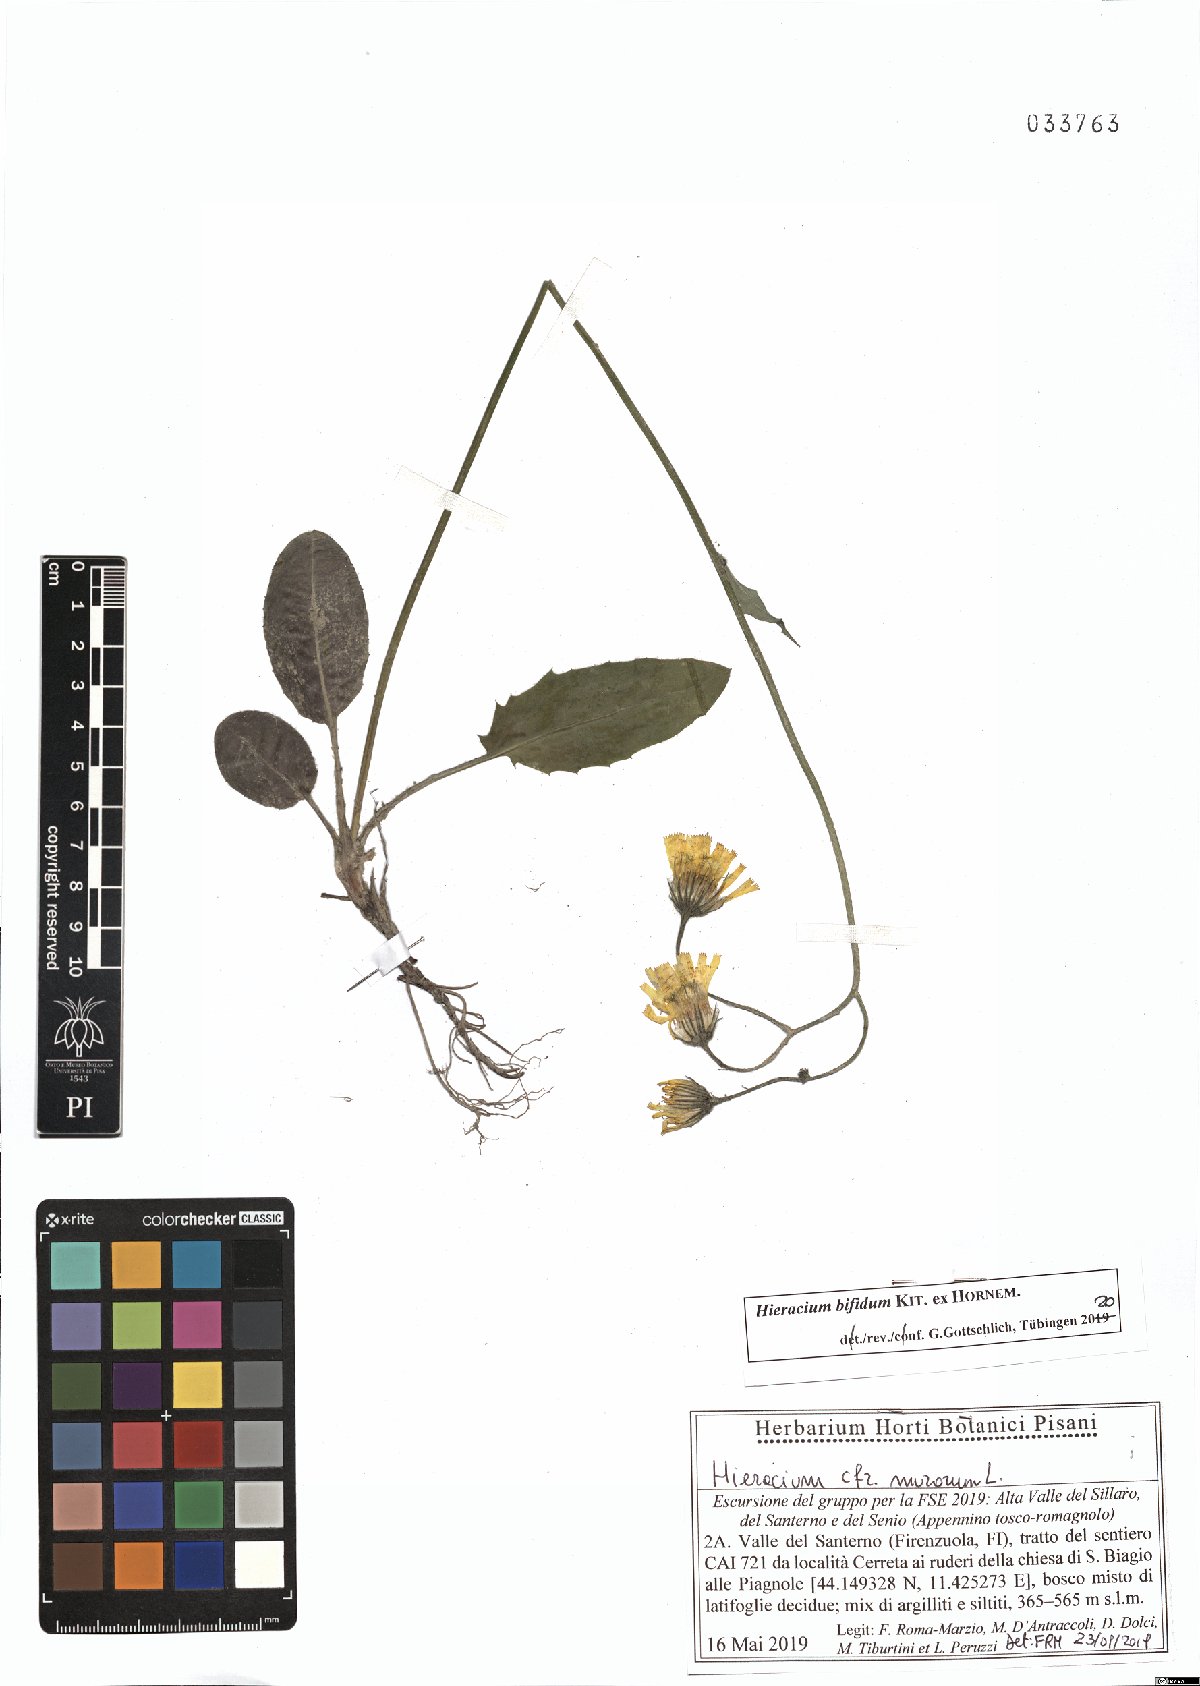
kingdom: Plantae
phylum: Tracheophyta
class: Magnoliopsida
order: Asterales
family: Asteraceae
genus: Hieracium
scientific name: Hieracium bifidum
